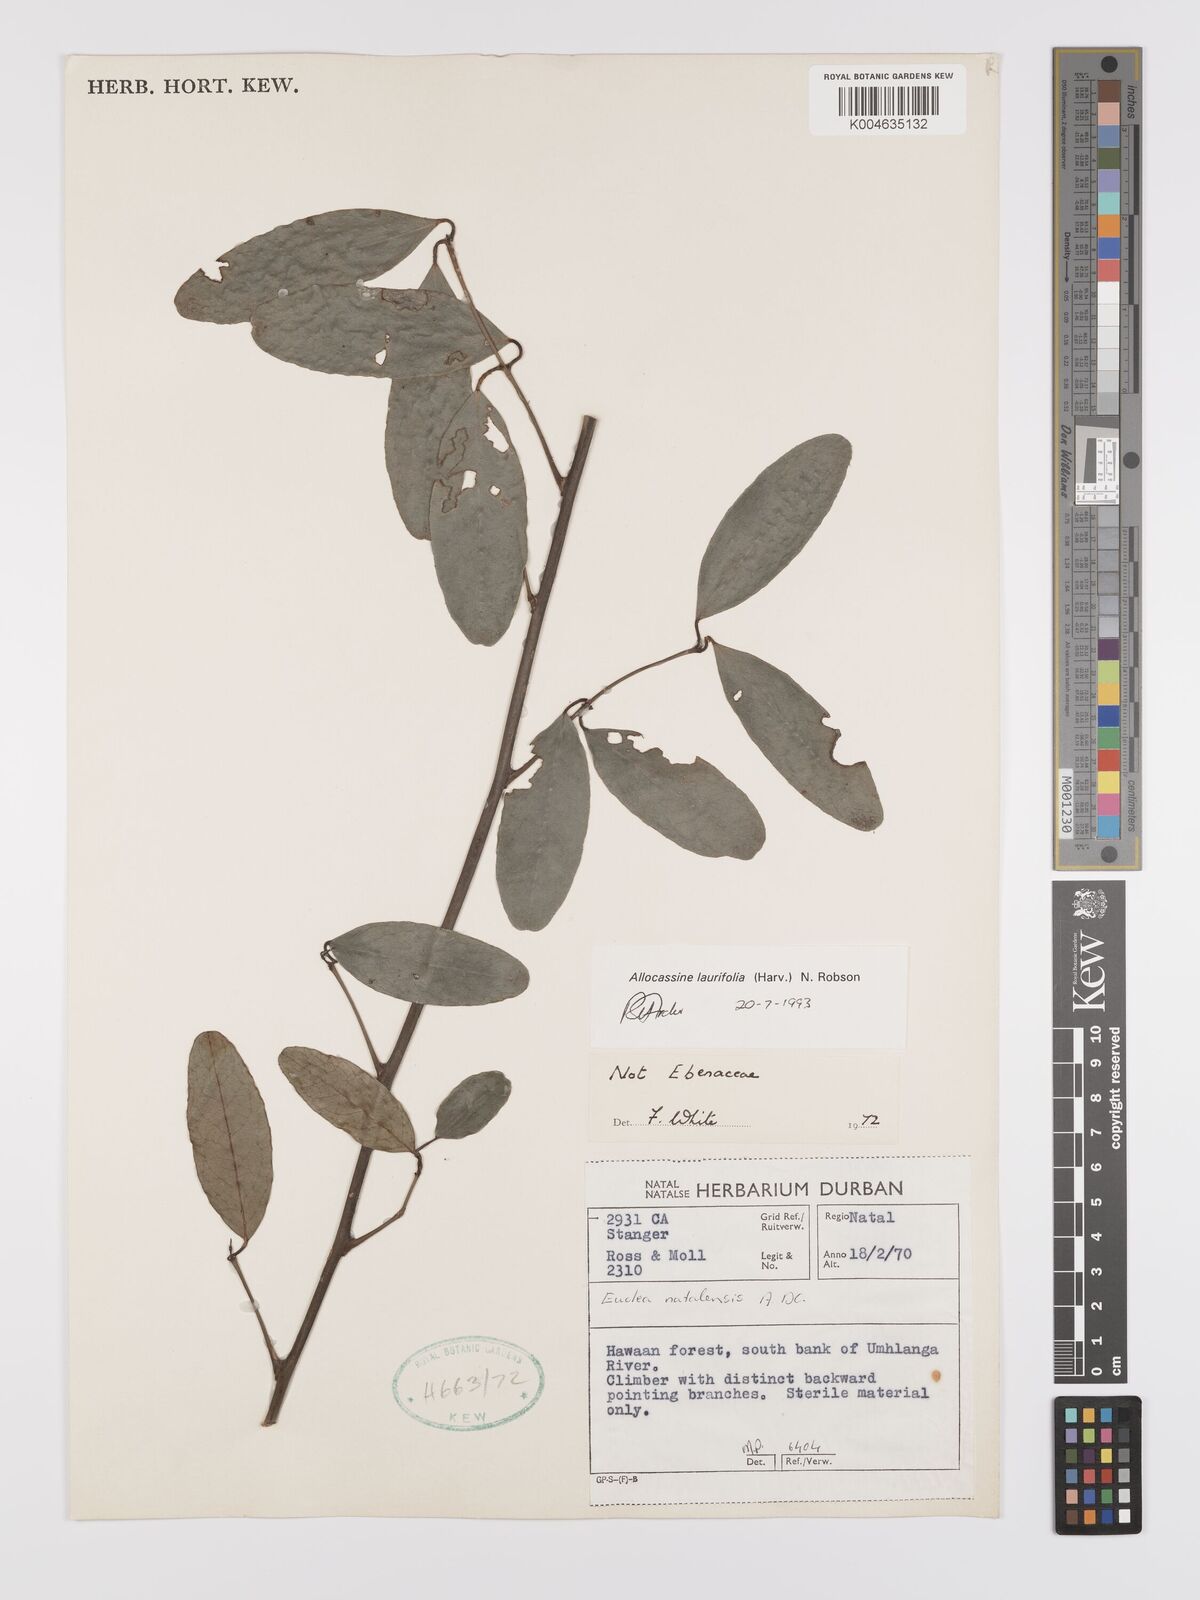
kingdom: Plantae
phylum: Tracheophyta
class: Magnoliopsida
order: Celastrales
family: Celastraceae
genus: Allocassine
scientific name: Allocassine
